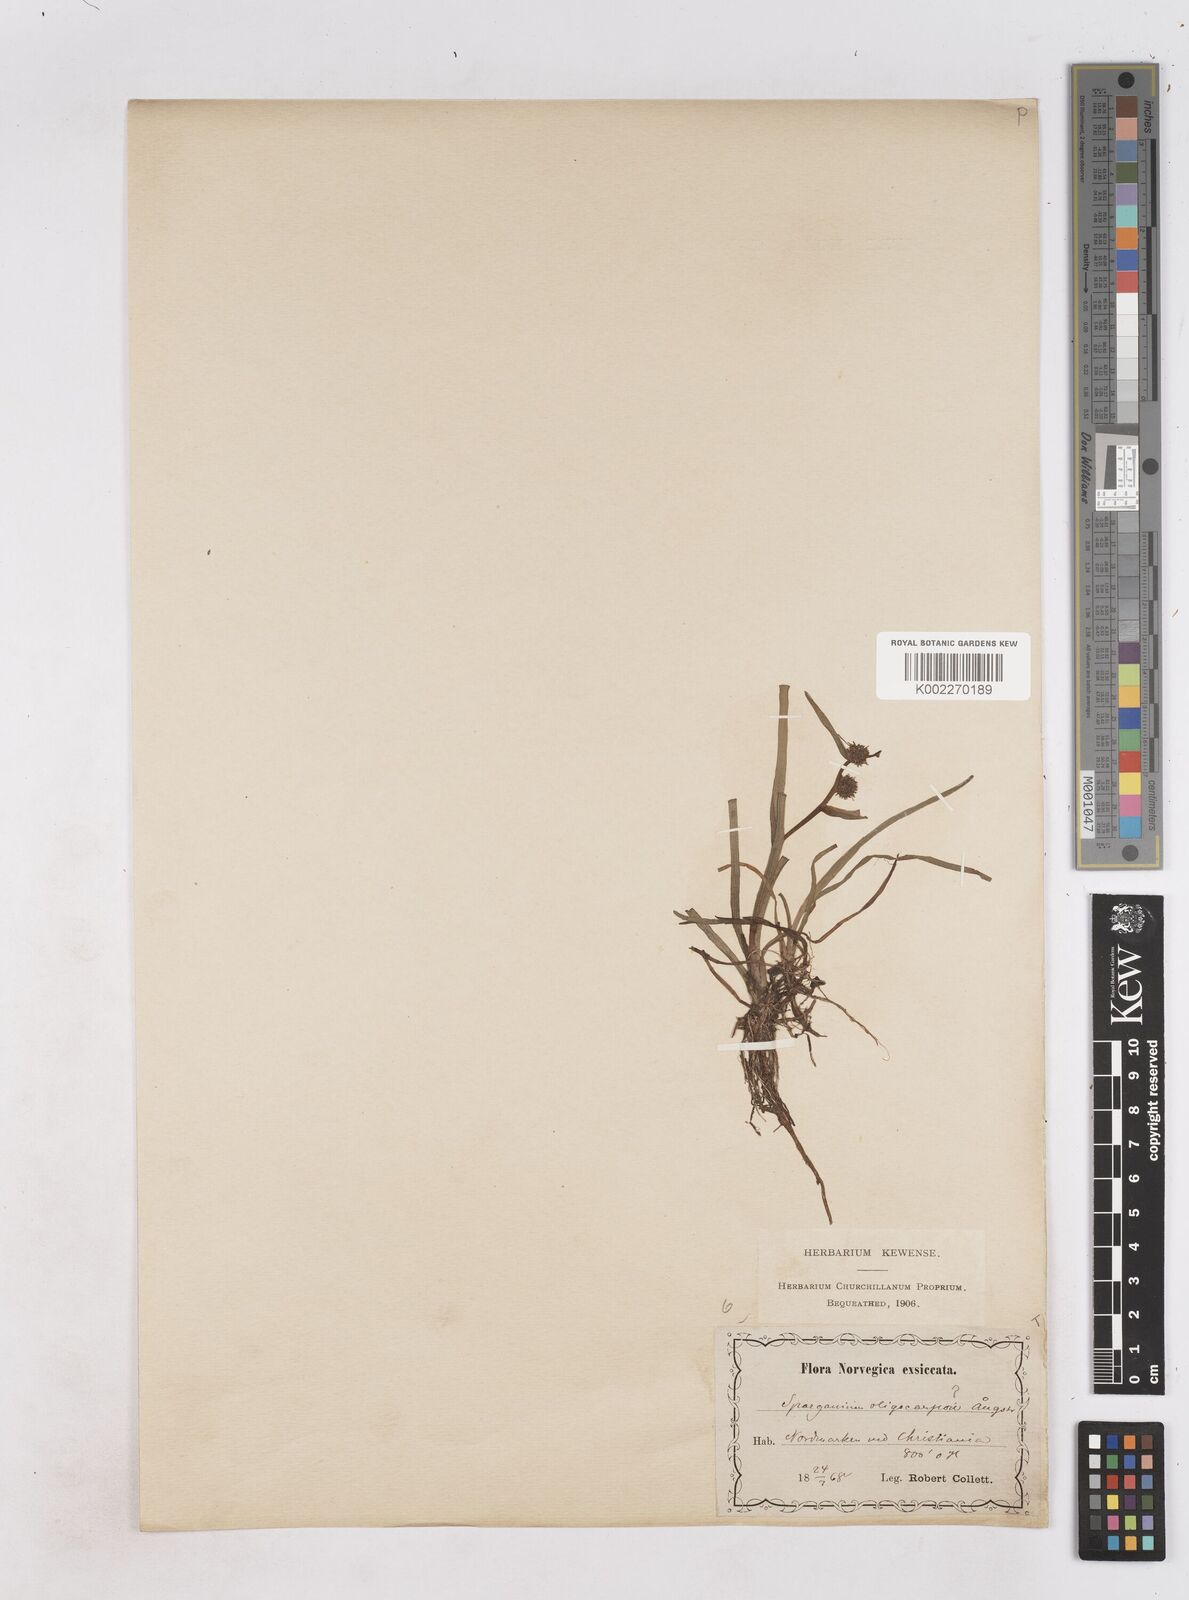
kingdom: Plantae
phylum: Tracheophyta
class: Liliopsida
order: Poales
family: Typhaceae
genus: Sparganium
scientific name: Sparganium oligocarpon
